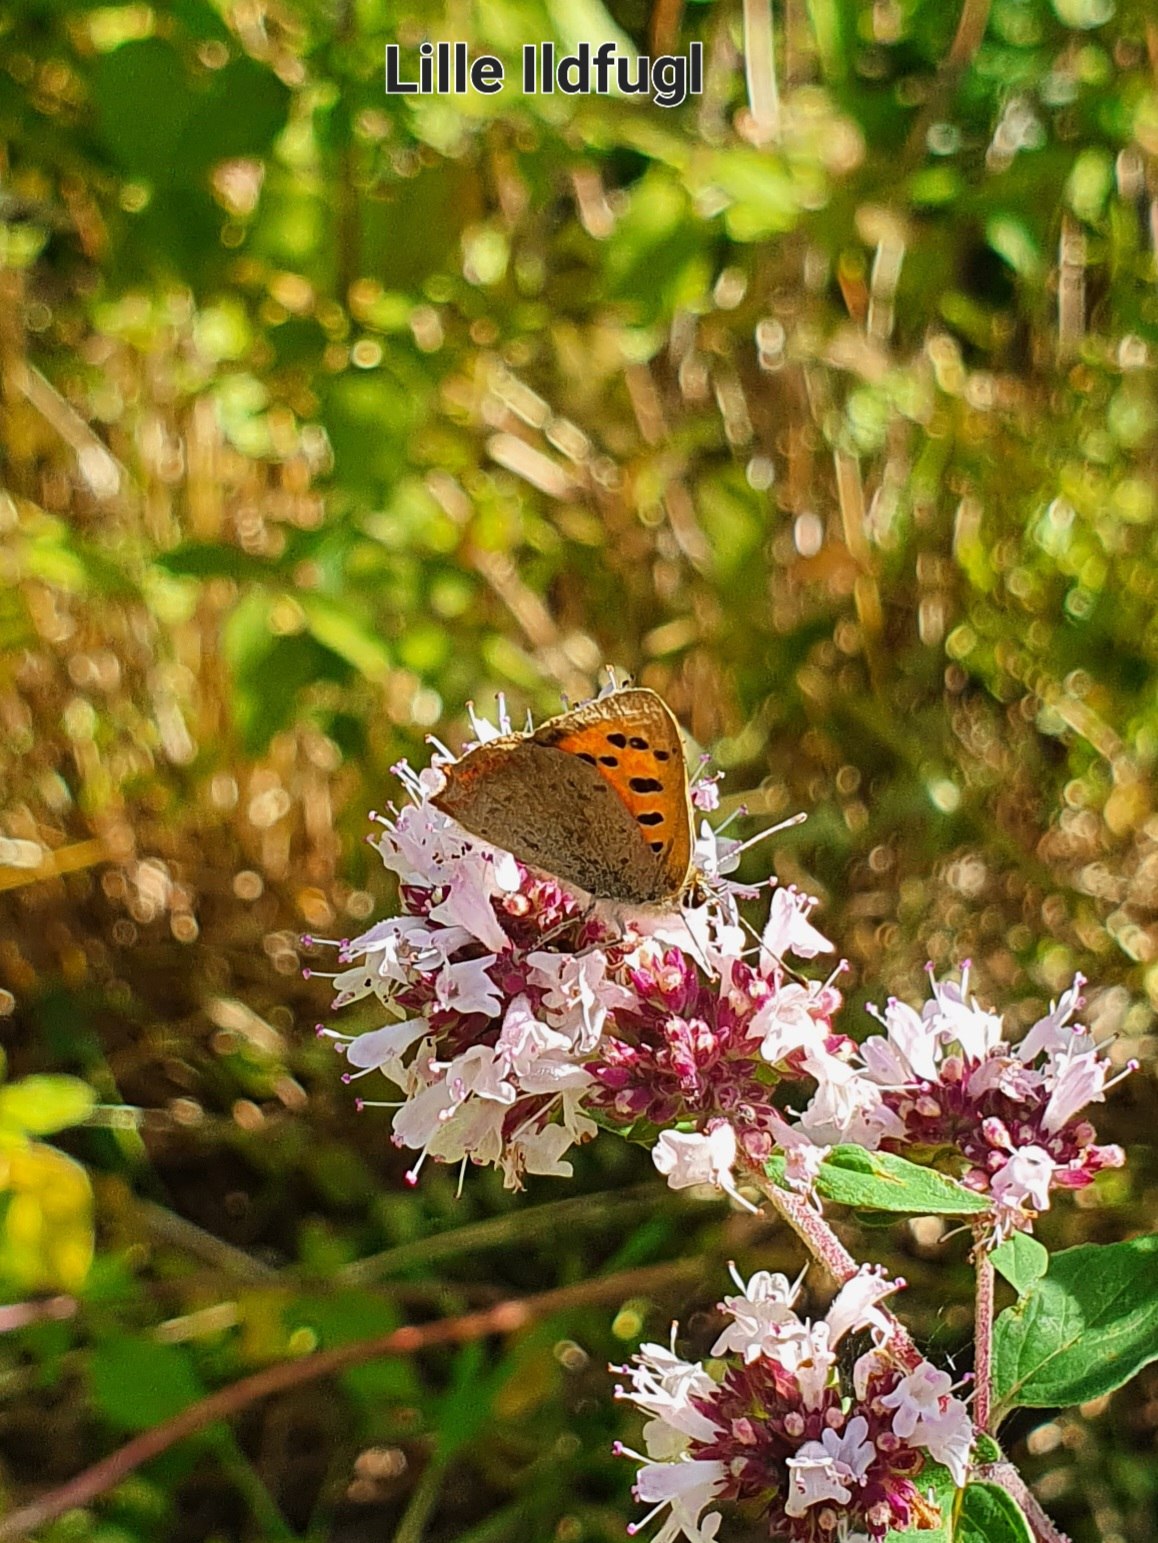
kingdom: Animalia
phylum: Arthropoda
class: Insecta
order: Lepidoptera
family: Lycaenidae
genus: Lycaena
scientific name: Lycaena phlaeas
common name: Lille ildfugl
